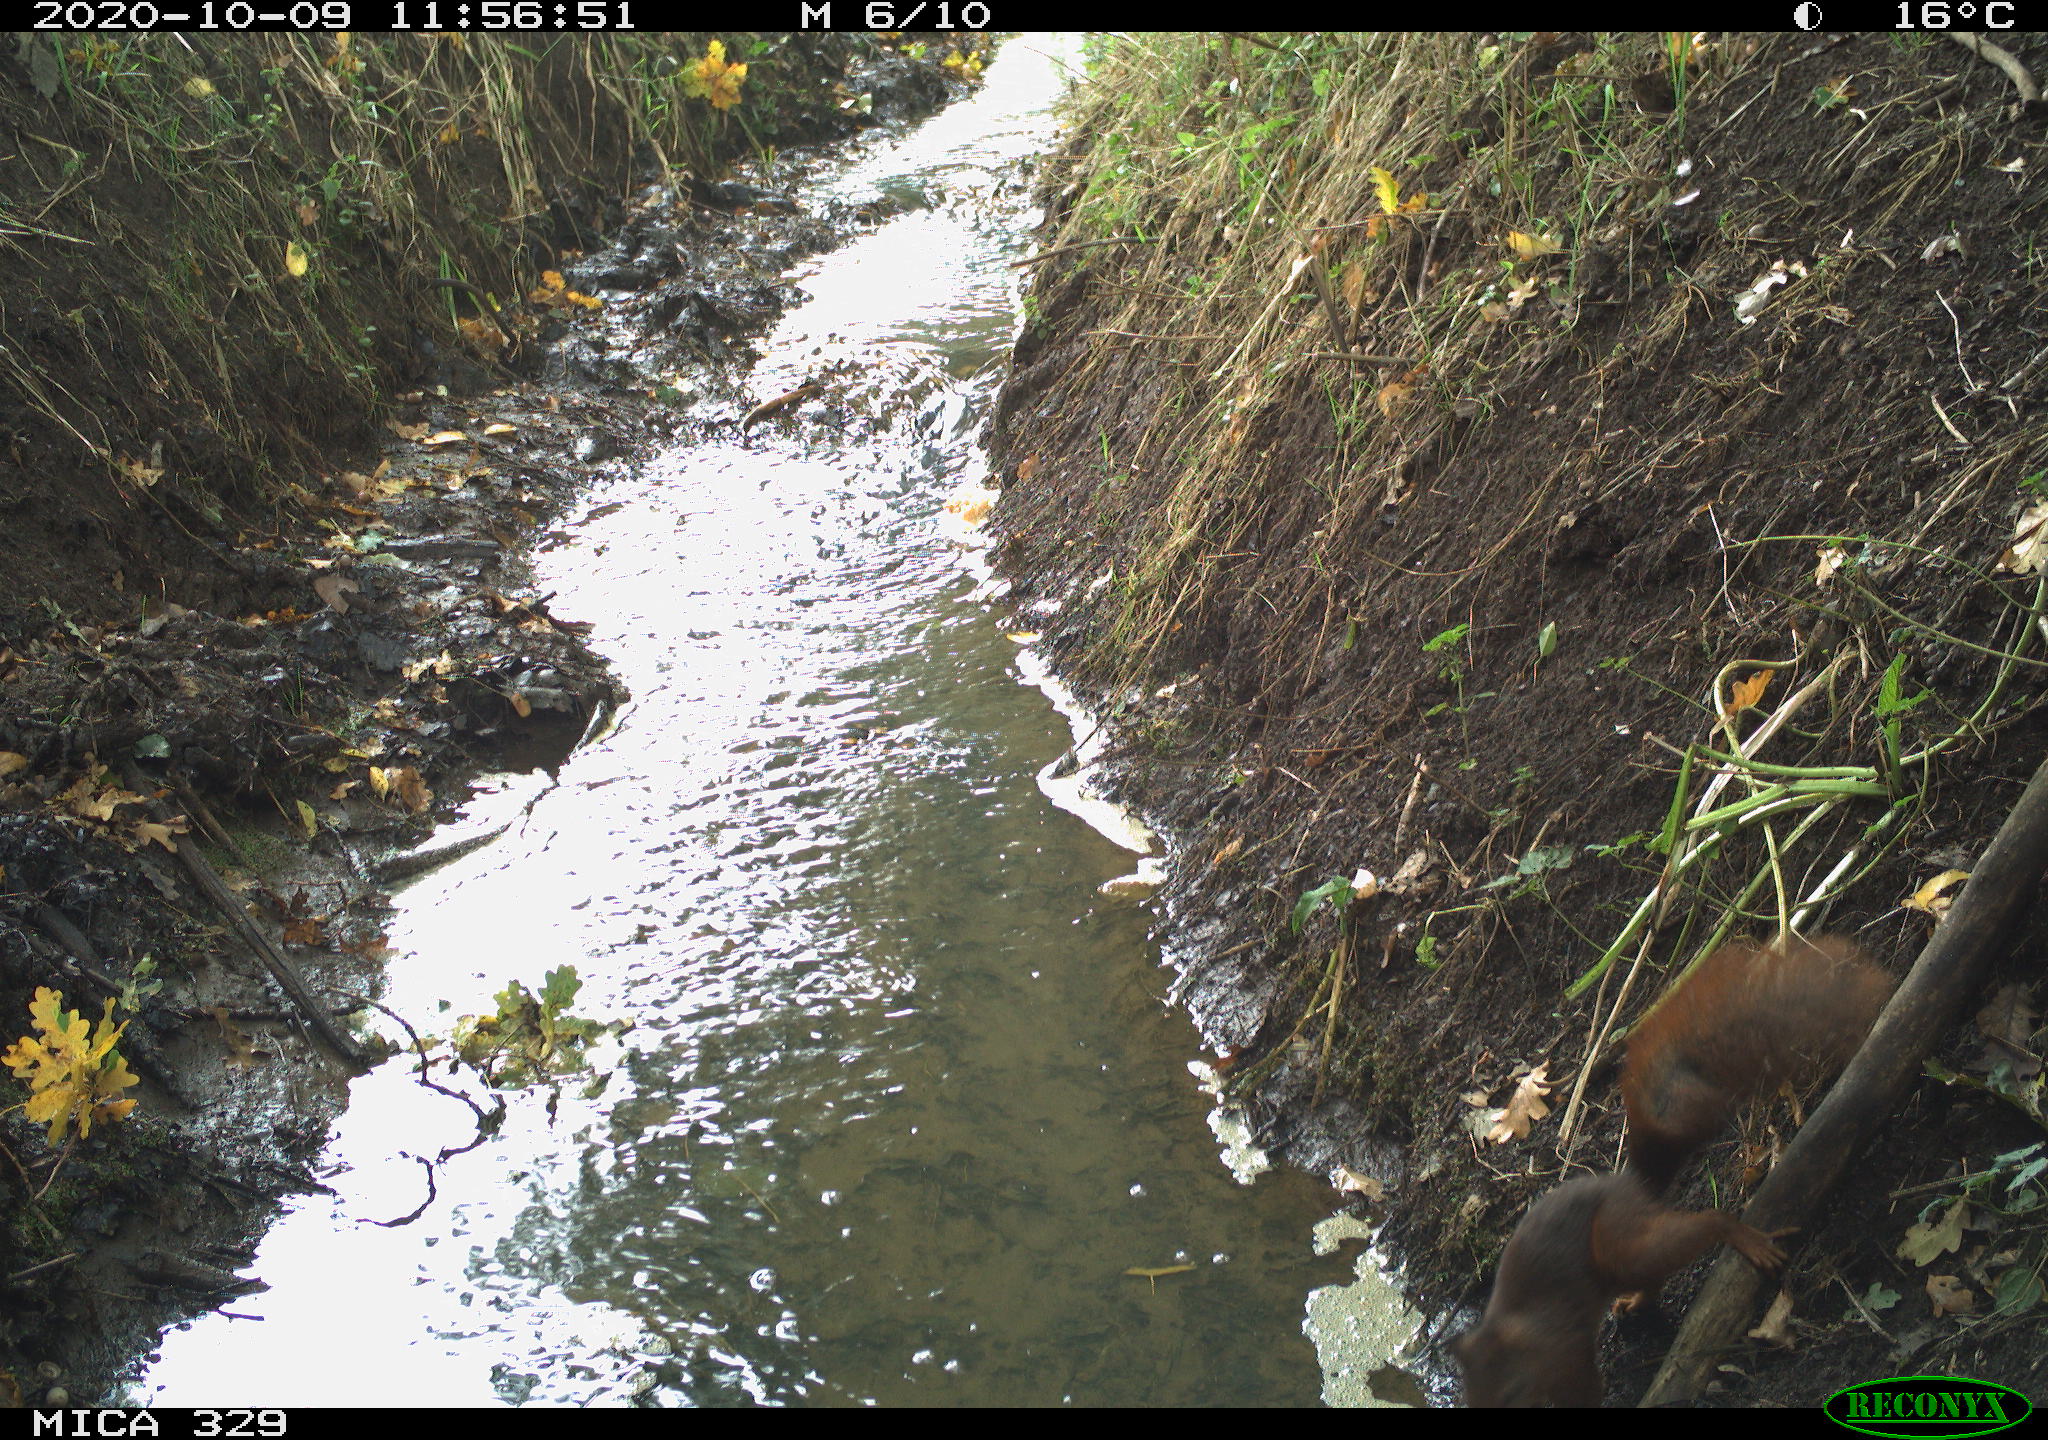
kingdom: Animalia
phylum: Chordata
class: Mammalia
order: Rodentia
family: Sciuridae
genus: Sciurus
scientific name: Sciurus vulgaris
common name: Eurasian red squirrel
